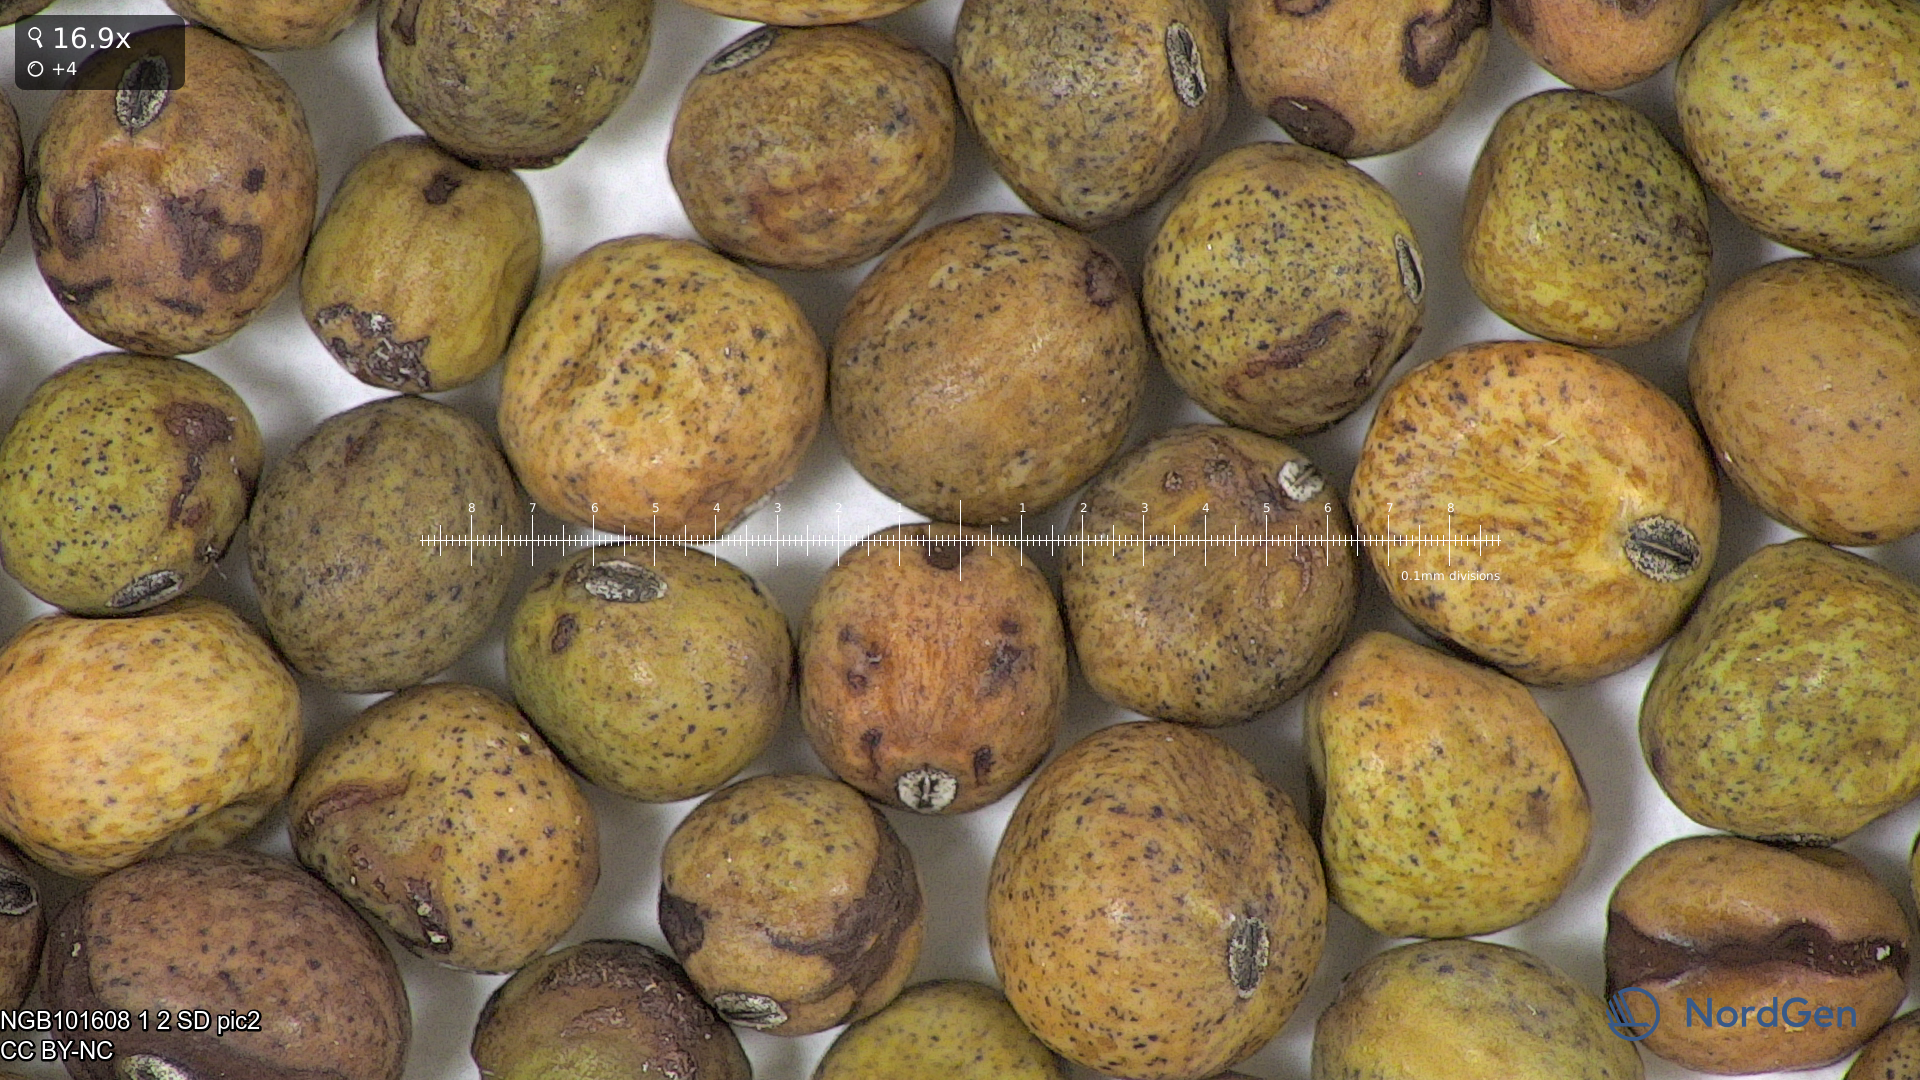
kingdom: Plantae
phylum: Tracheophyta
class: Magnoliopsida
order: Fabales
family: Fabaceae
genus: Lathyrus
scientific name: Lathyrus oleraceus
